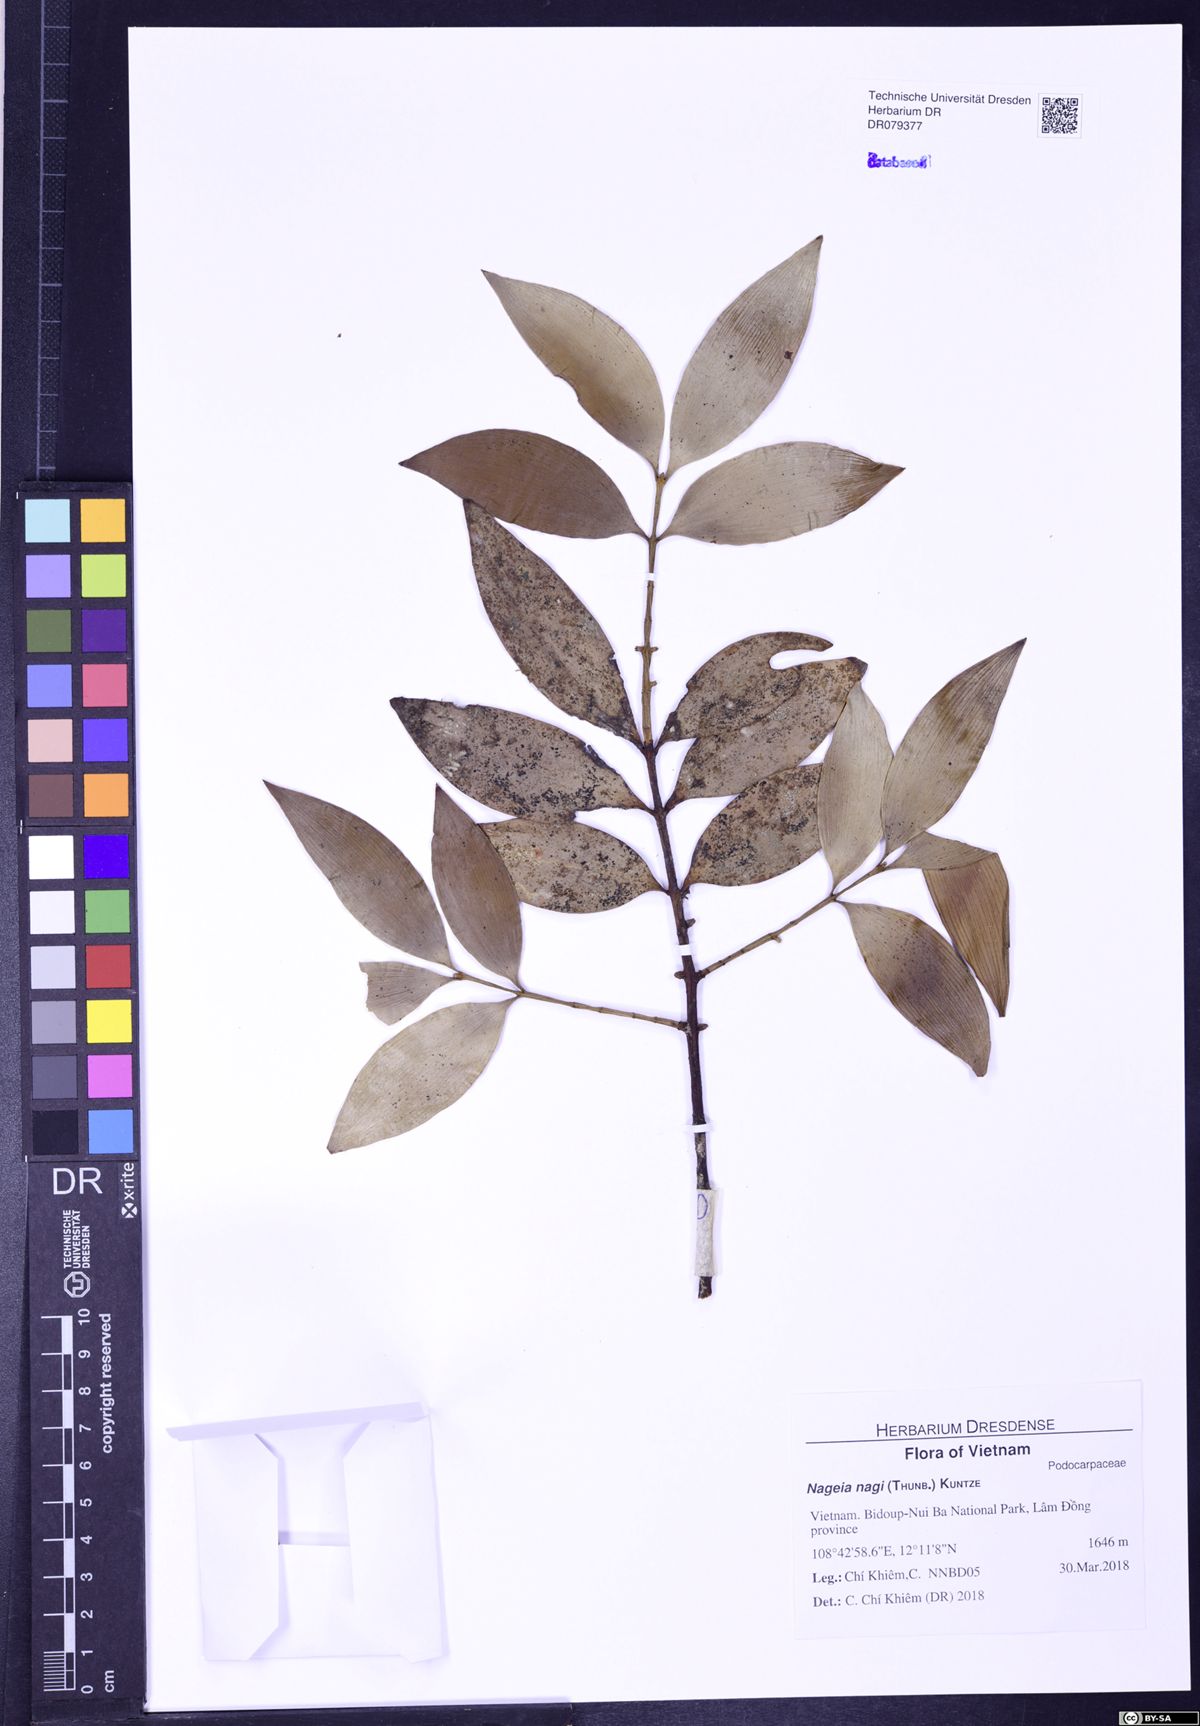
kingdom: Plantae
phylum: Tracheophyta
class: Pinopsida
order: Pinales
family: Podocarpaceae
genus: Nageia
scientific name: Nageia nagi
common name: Kaphal
